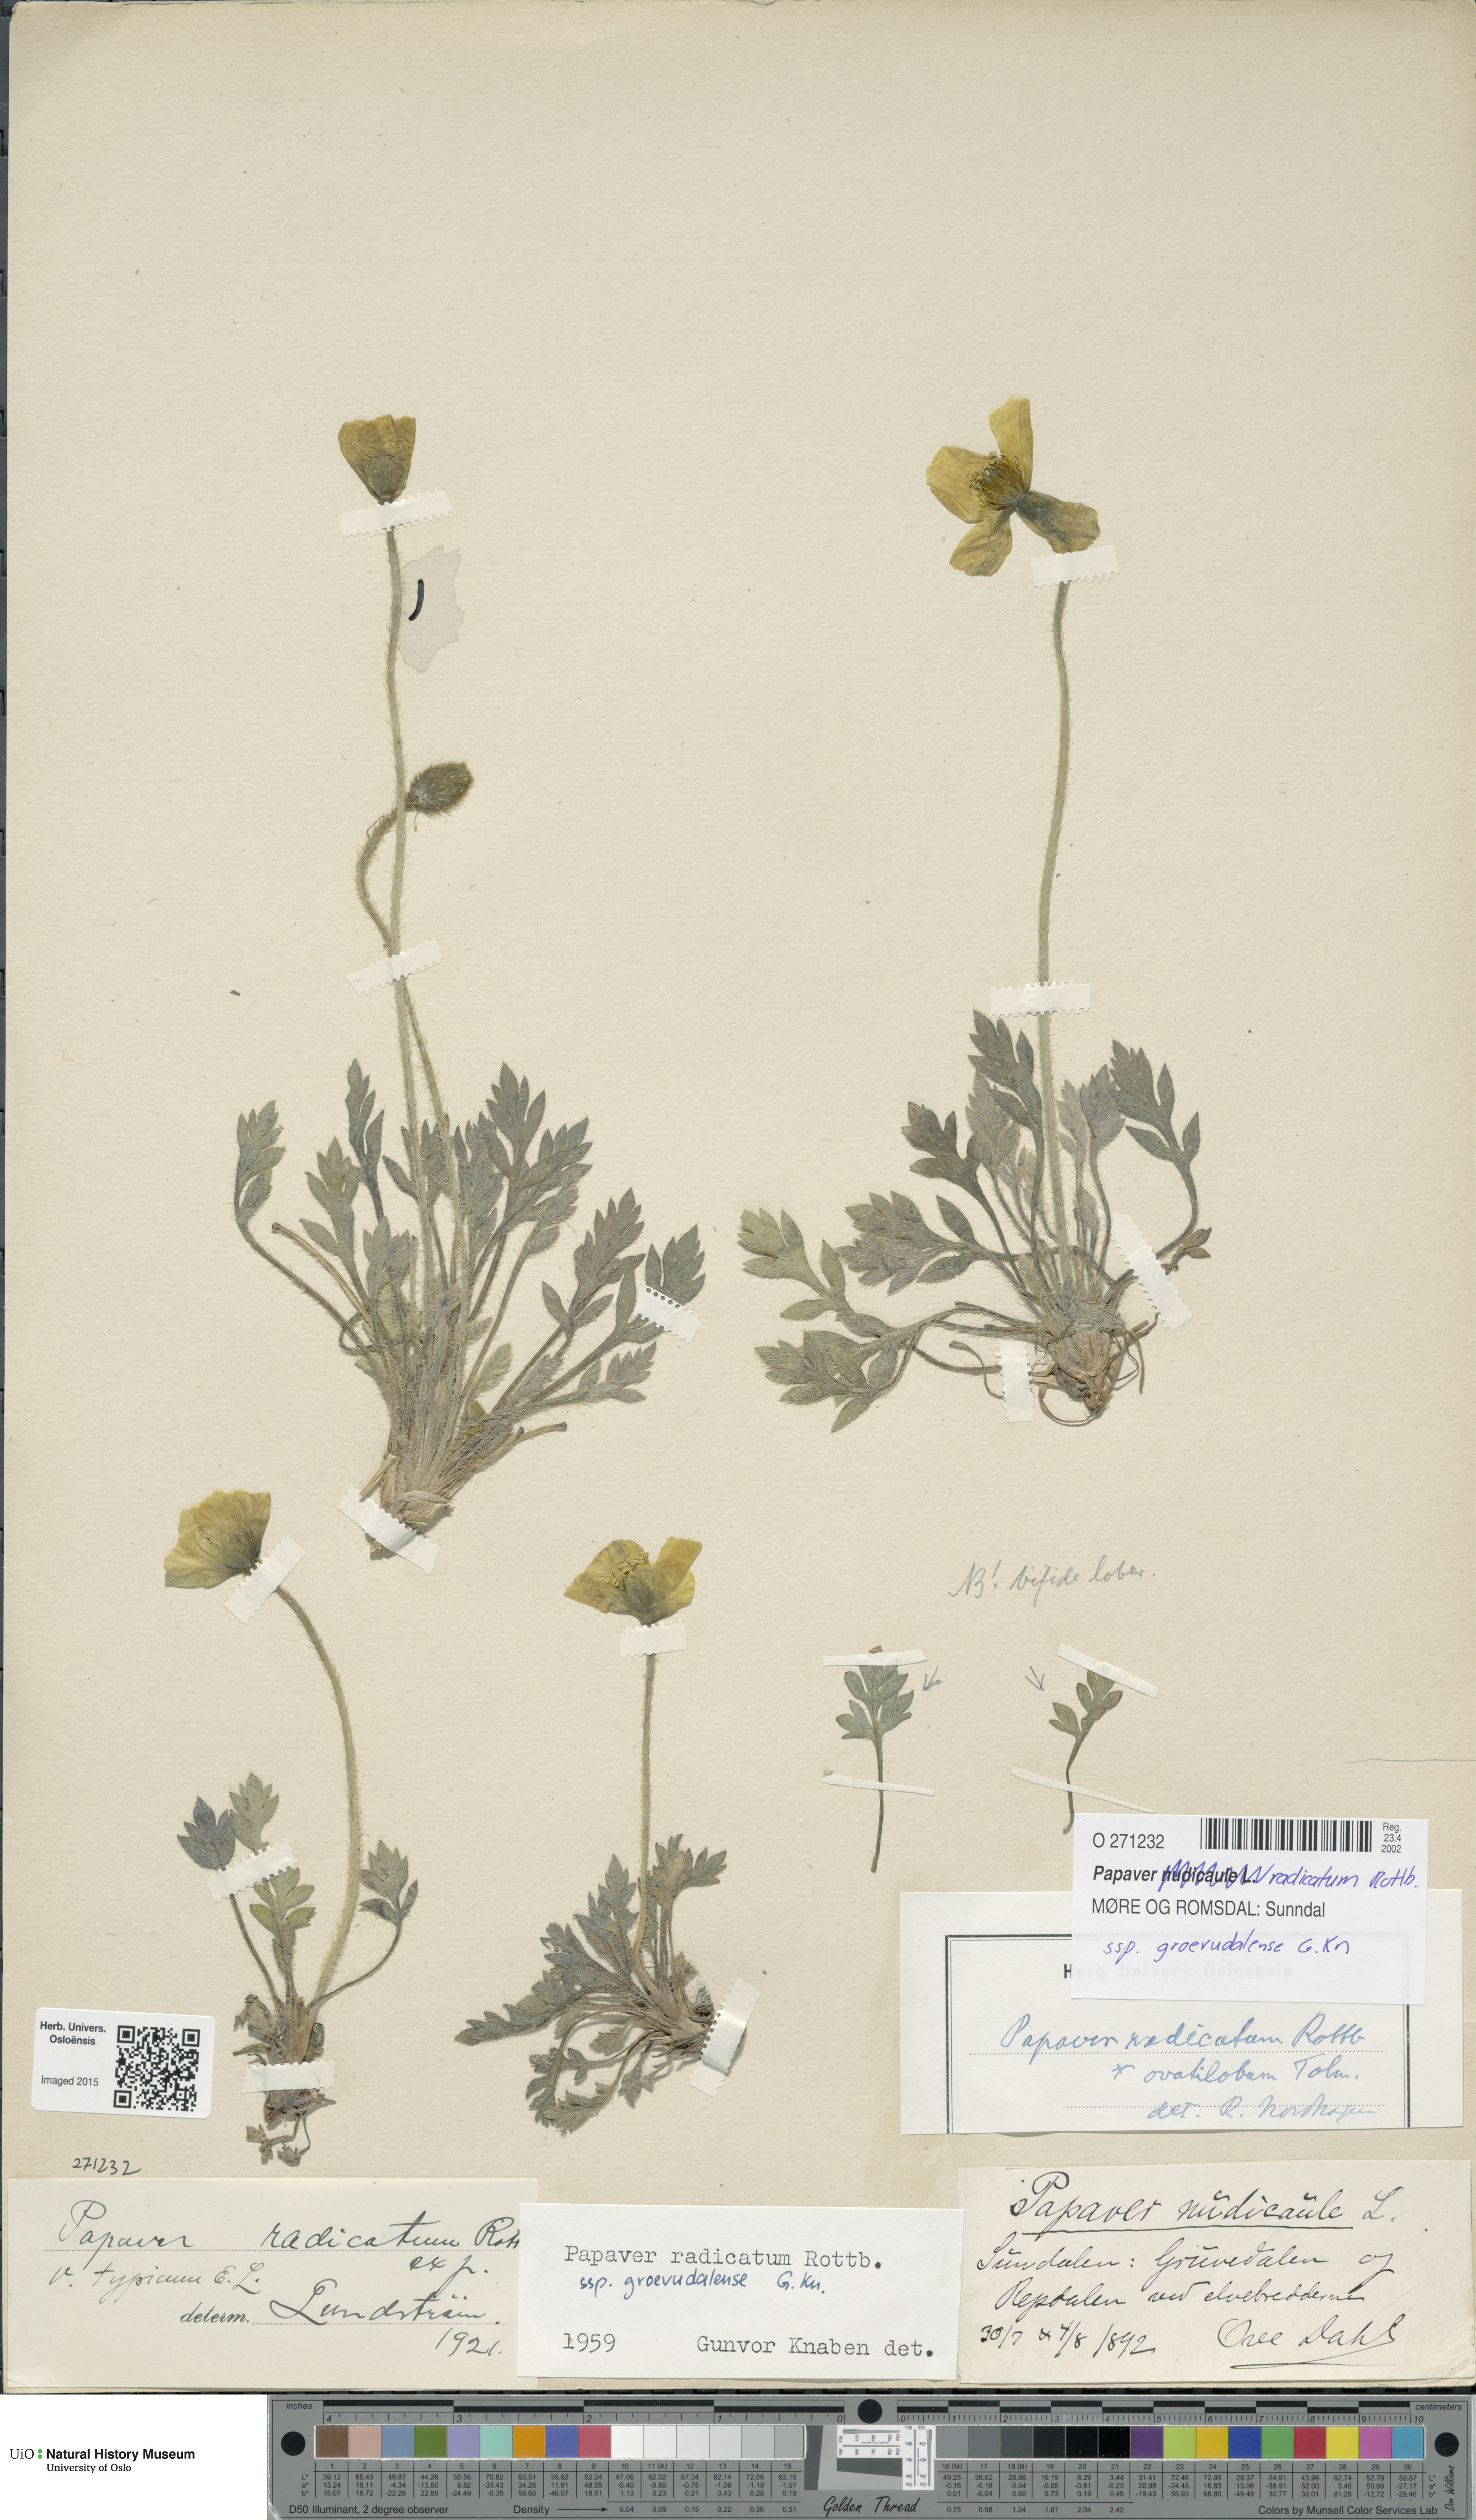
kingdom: Plantae
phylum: Tracheophyta
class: Magnoliopsida
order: Ranunculales
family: Papaveraceae
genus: Papaver
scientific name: Papaver radicatum
